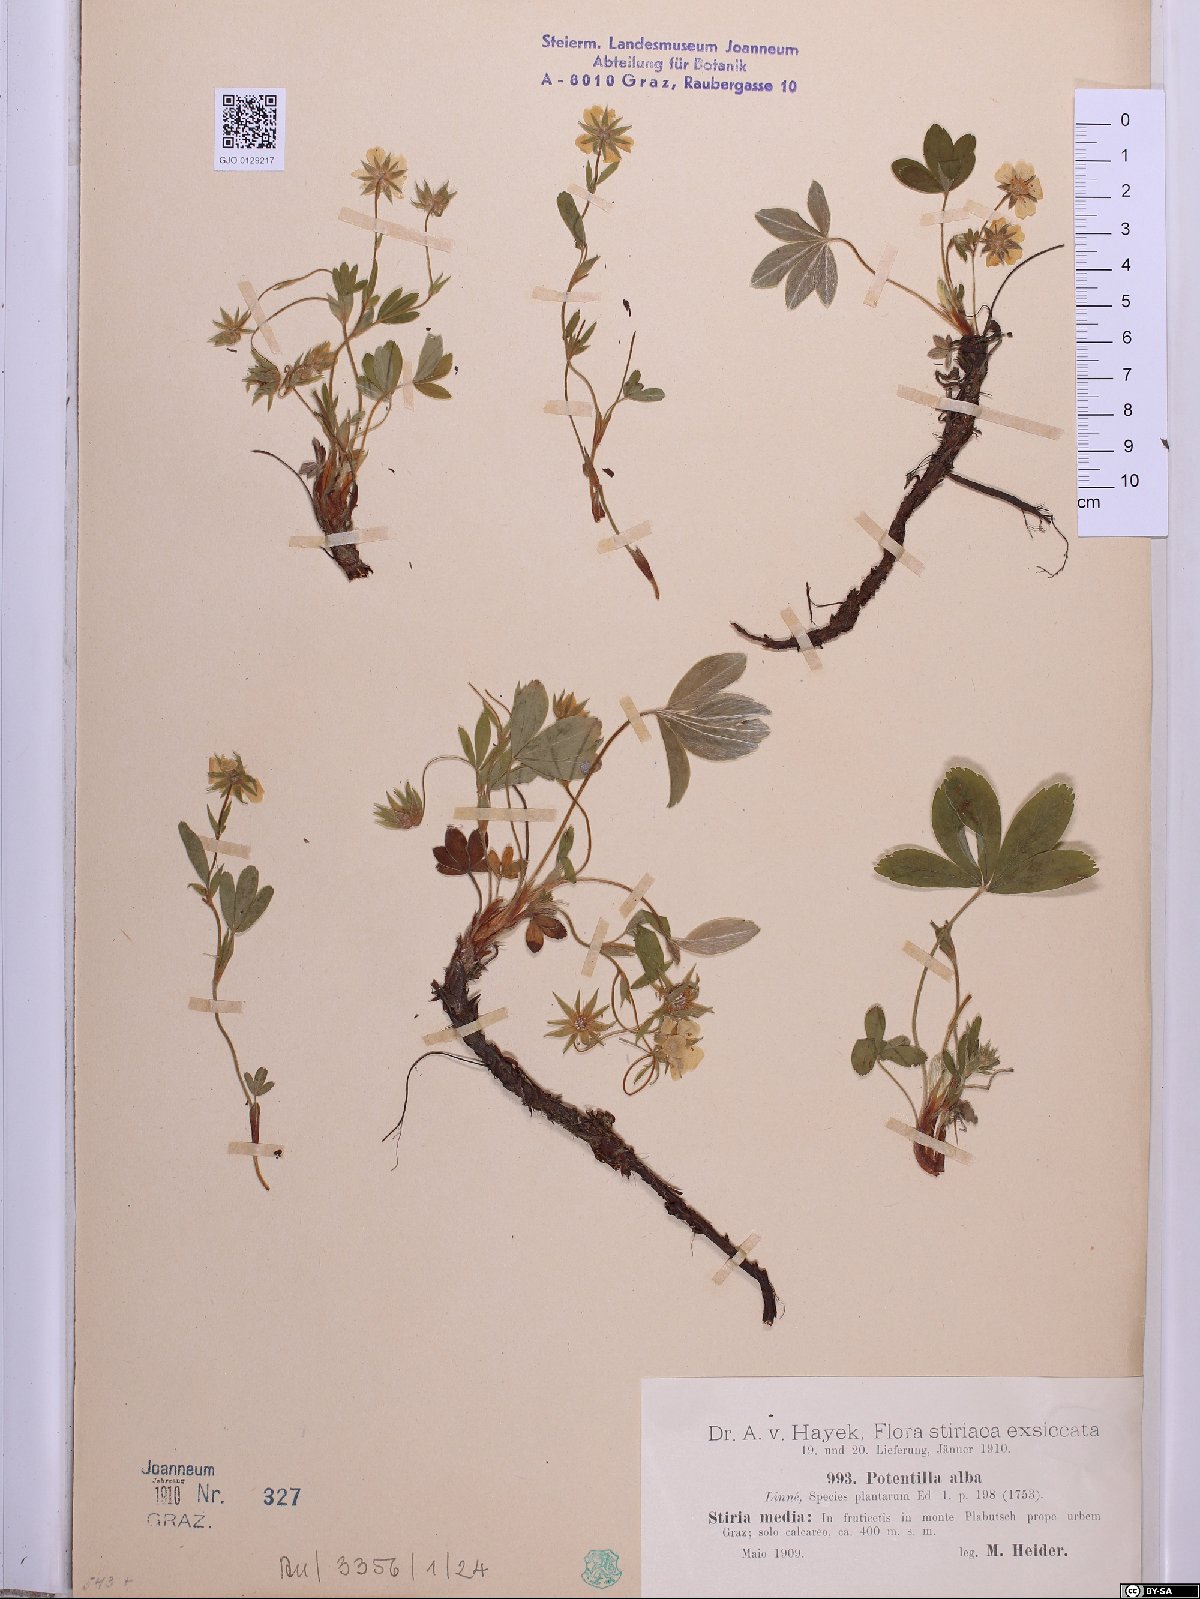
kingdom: Plantae
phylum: Tracheophyta
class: Magnoliopsida
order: Rosales
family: Rosaceae
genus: Potentilla
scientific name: Potentilla alba
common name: White cinquefoil
